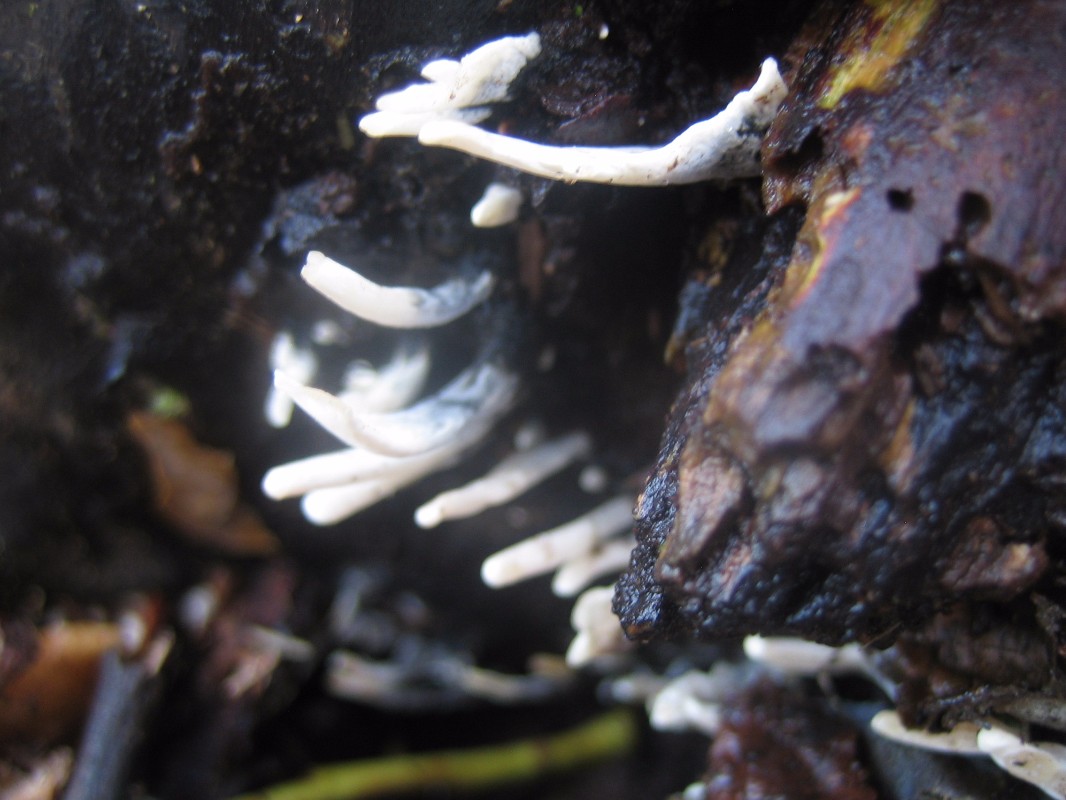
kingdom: Fungi
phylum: Ascomycota
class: Sordariomycetes
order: Xylariales
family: Xylariaceae
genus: Xylaria
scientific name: Xylaria hypoxylon
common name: grenet stødsvamp
